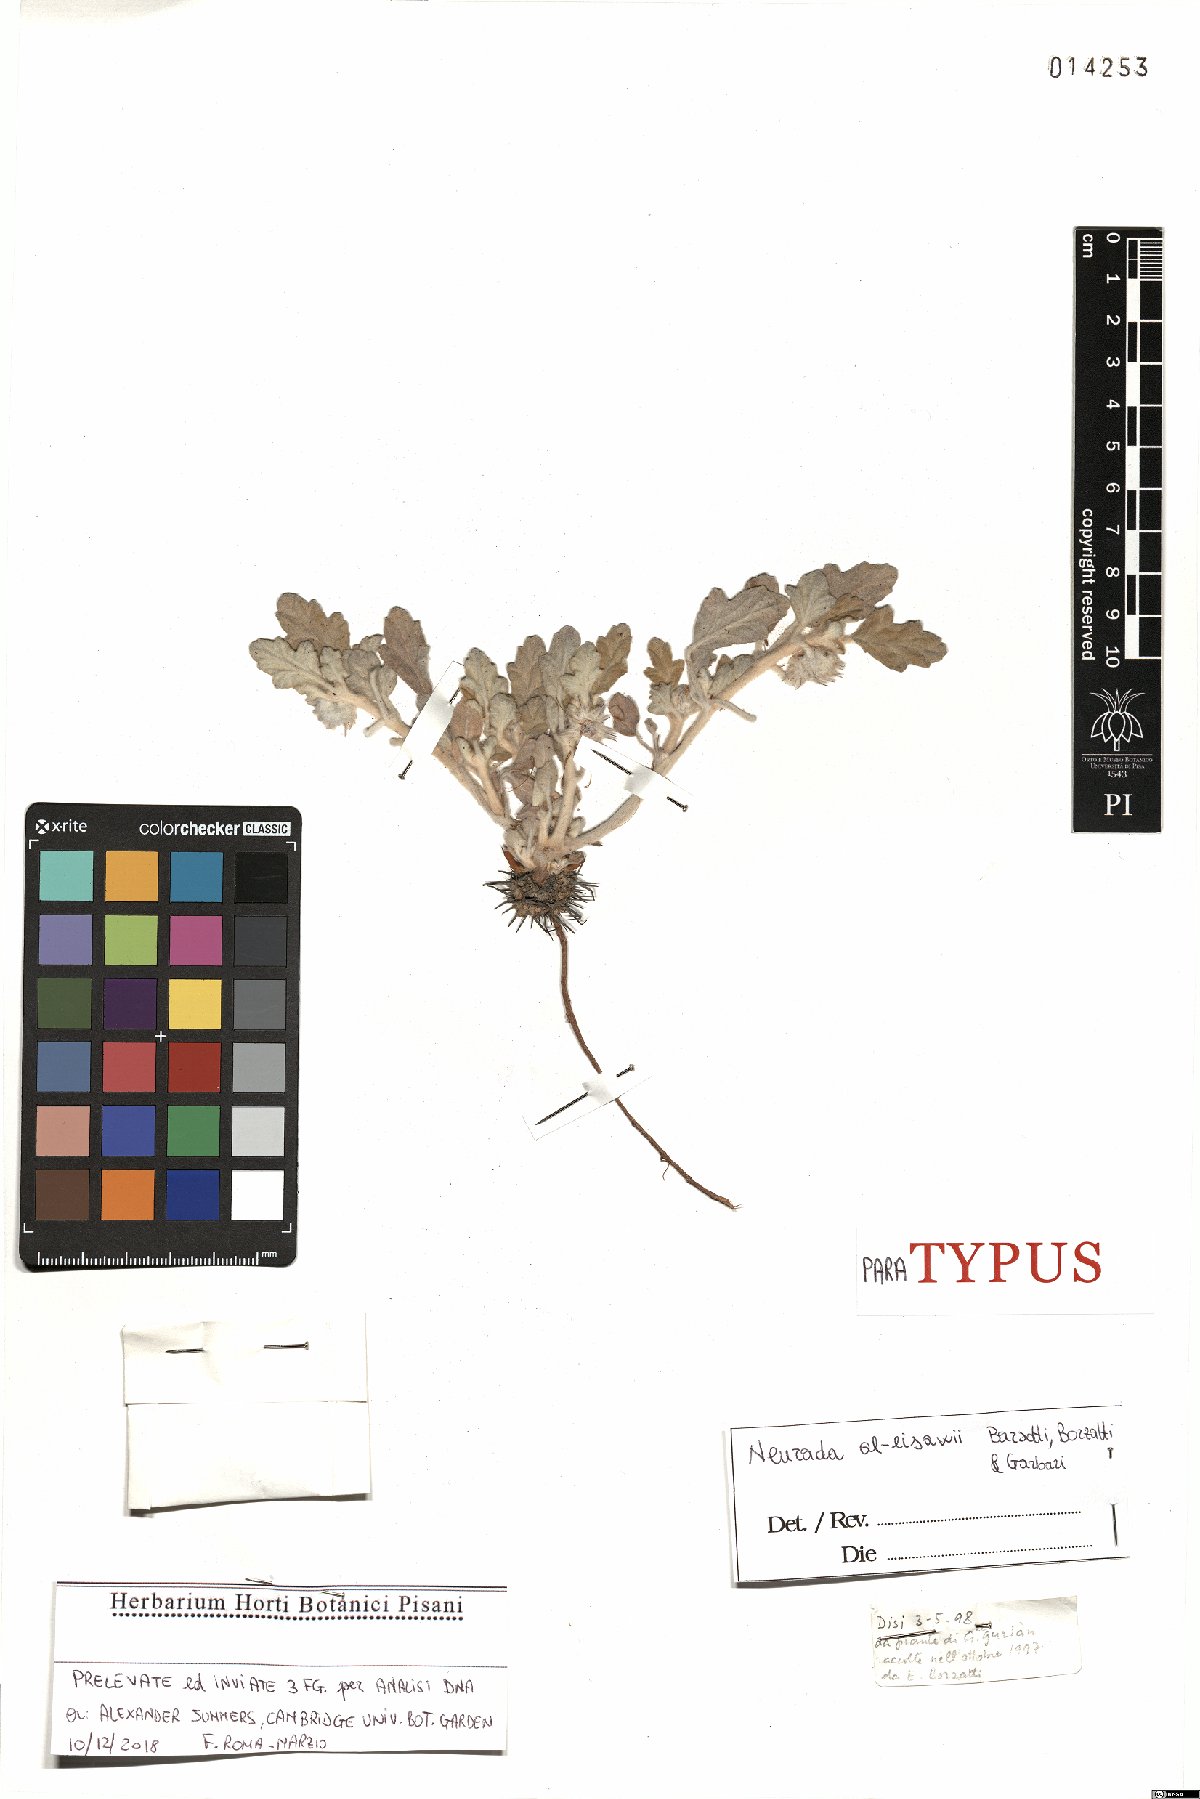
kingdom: Plantae
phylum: Tracheophyta
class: Magnoliopsida
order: Malvales
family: Neuradaceae
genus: Neurada
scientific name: Neurada procumbens
